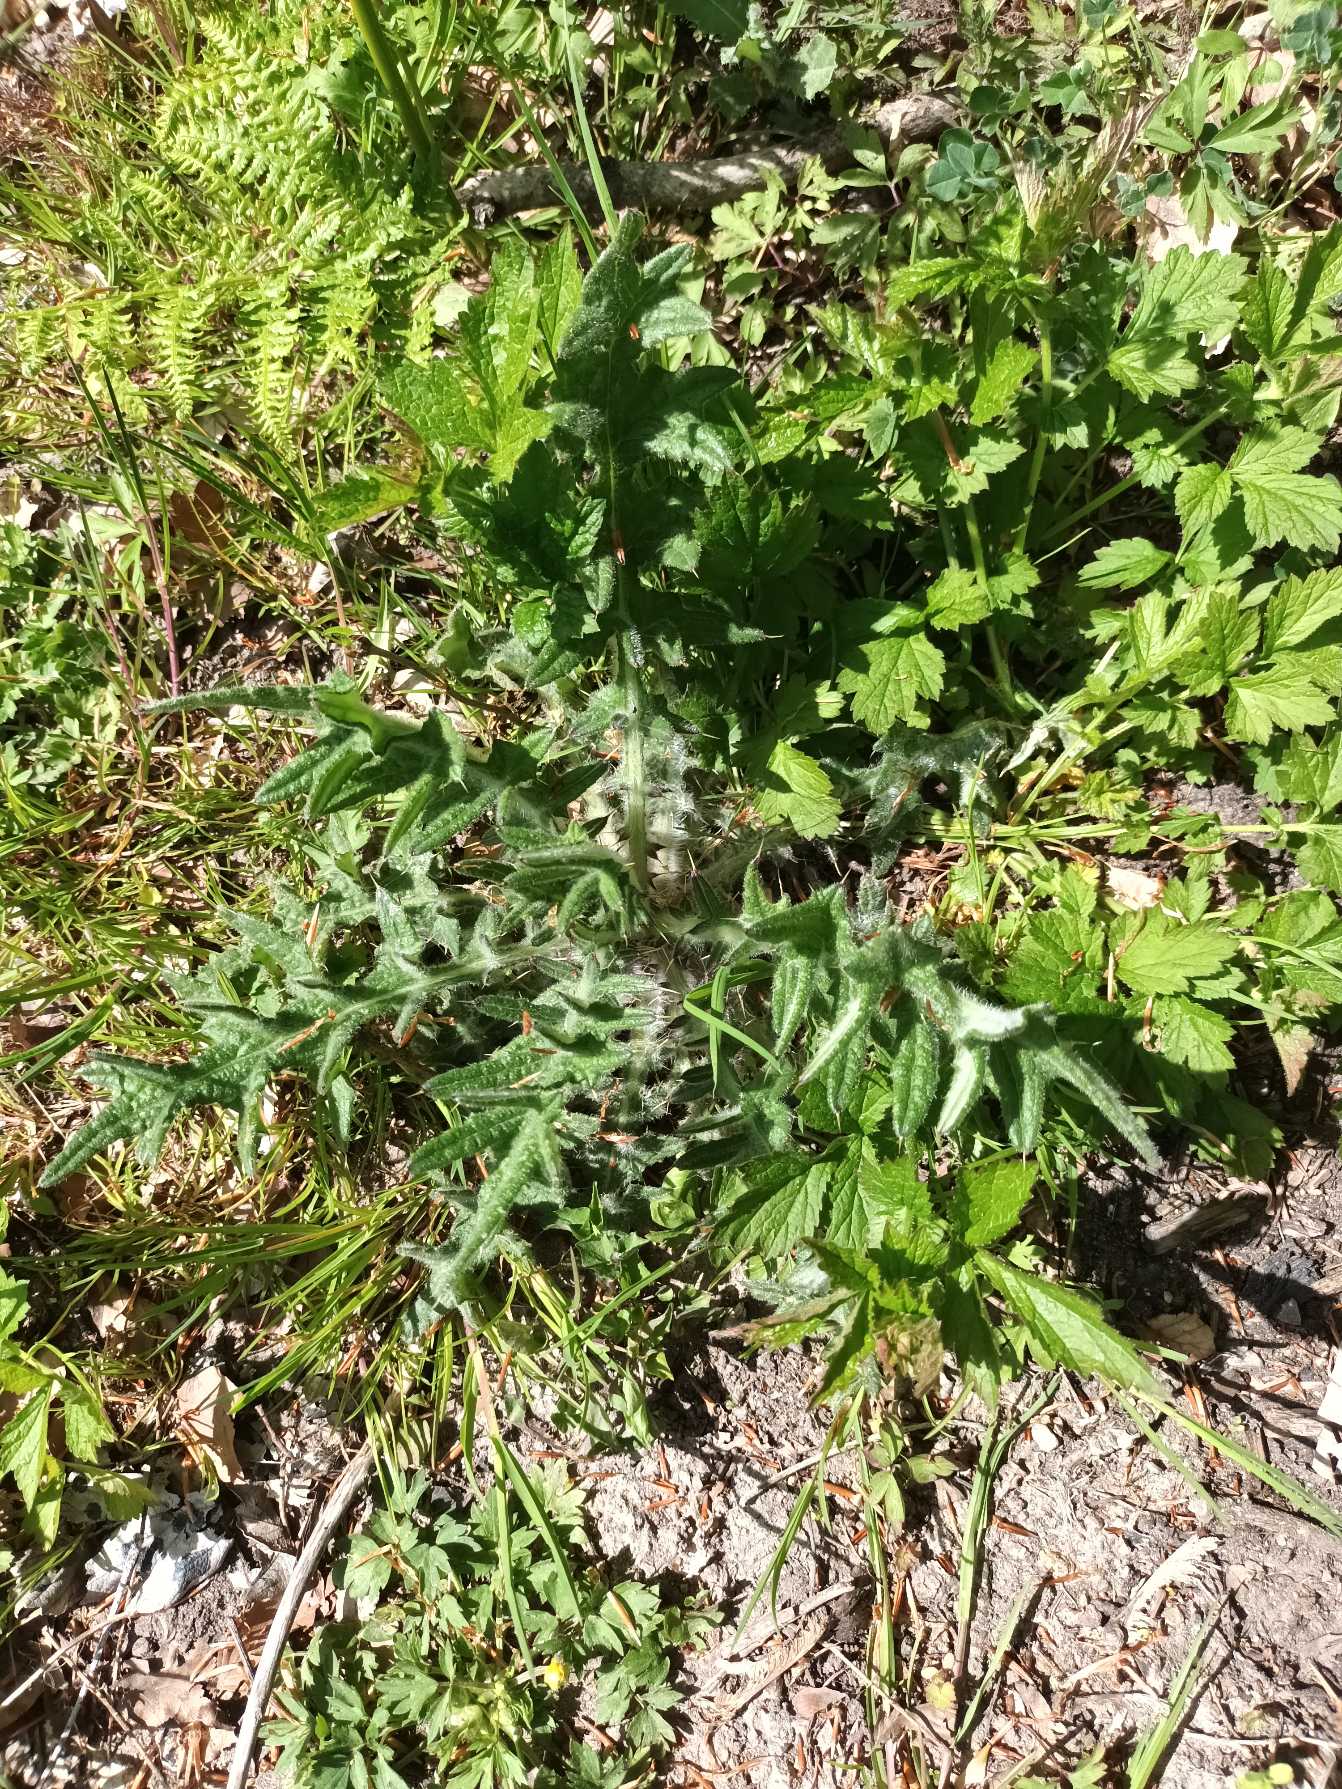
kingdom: Plantae
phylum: Tracheophyta
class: Magnoliopsida
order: Asterales
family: Asteraceae
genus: Cirsium
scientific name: Cirsium vulgare
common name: Horse-tidsel
